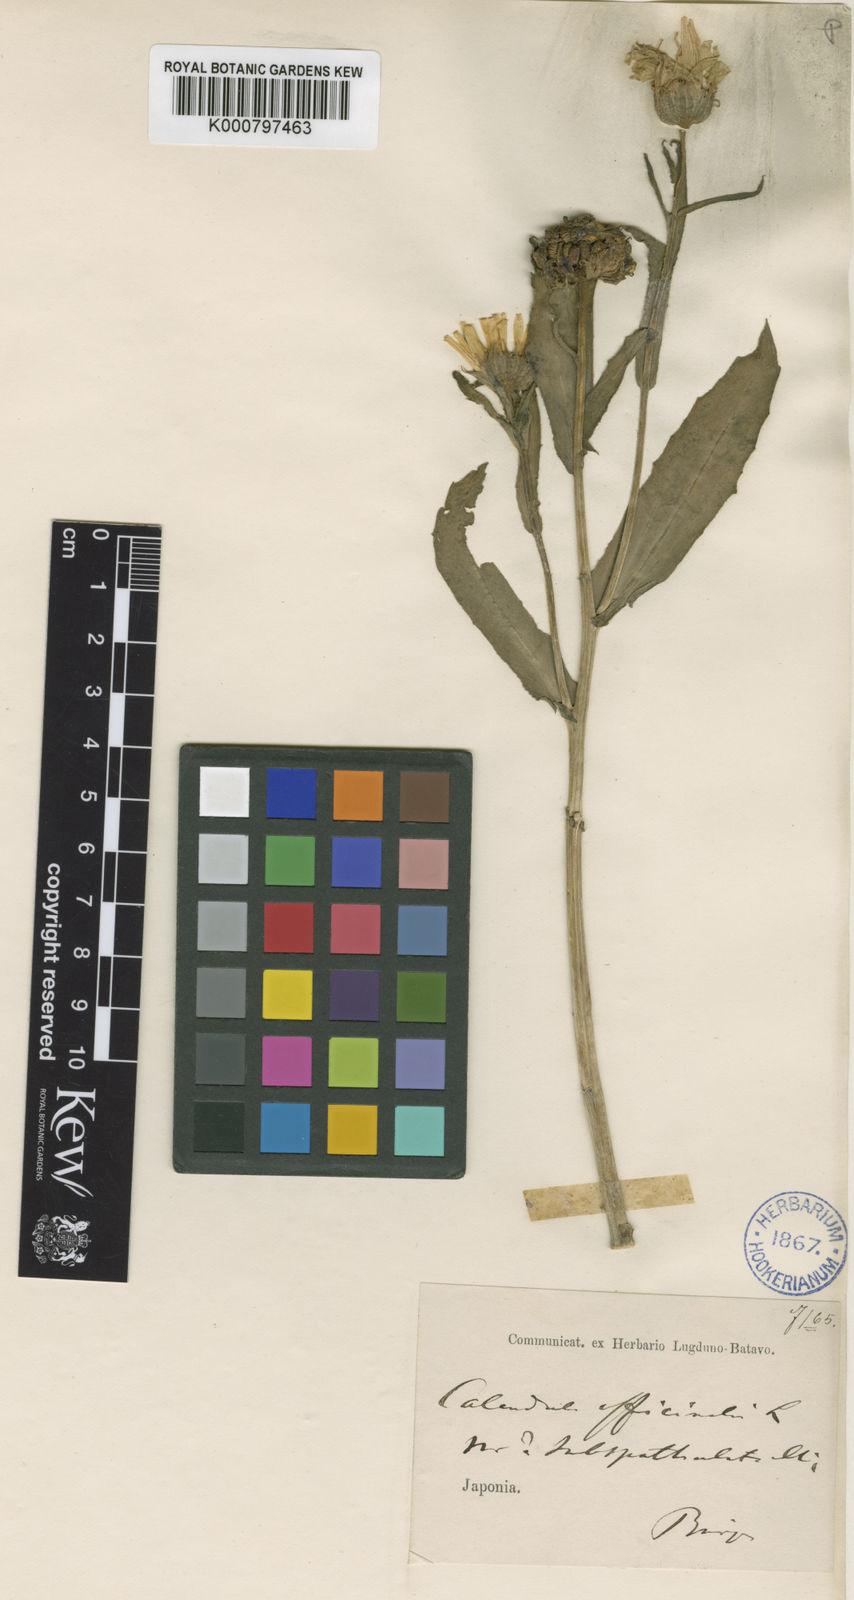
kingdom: Plantae
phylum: Tracheophyta
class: Magnoliopsida
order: Asterales
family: Asteraceae
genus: Calendula
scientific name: Calendula officinalis
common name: Pot marigold
